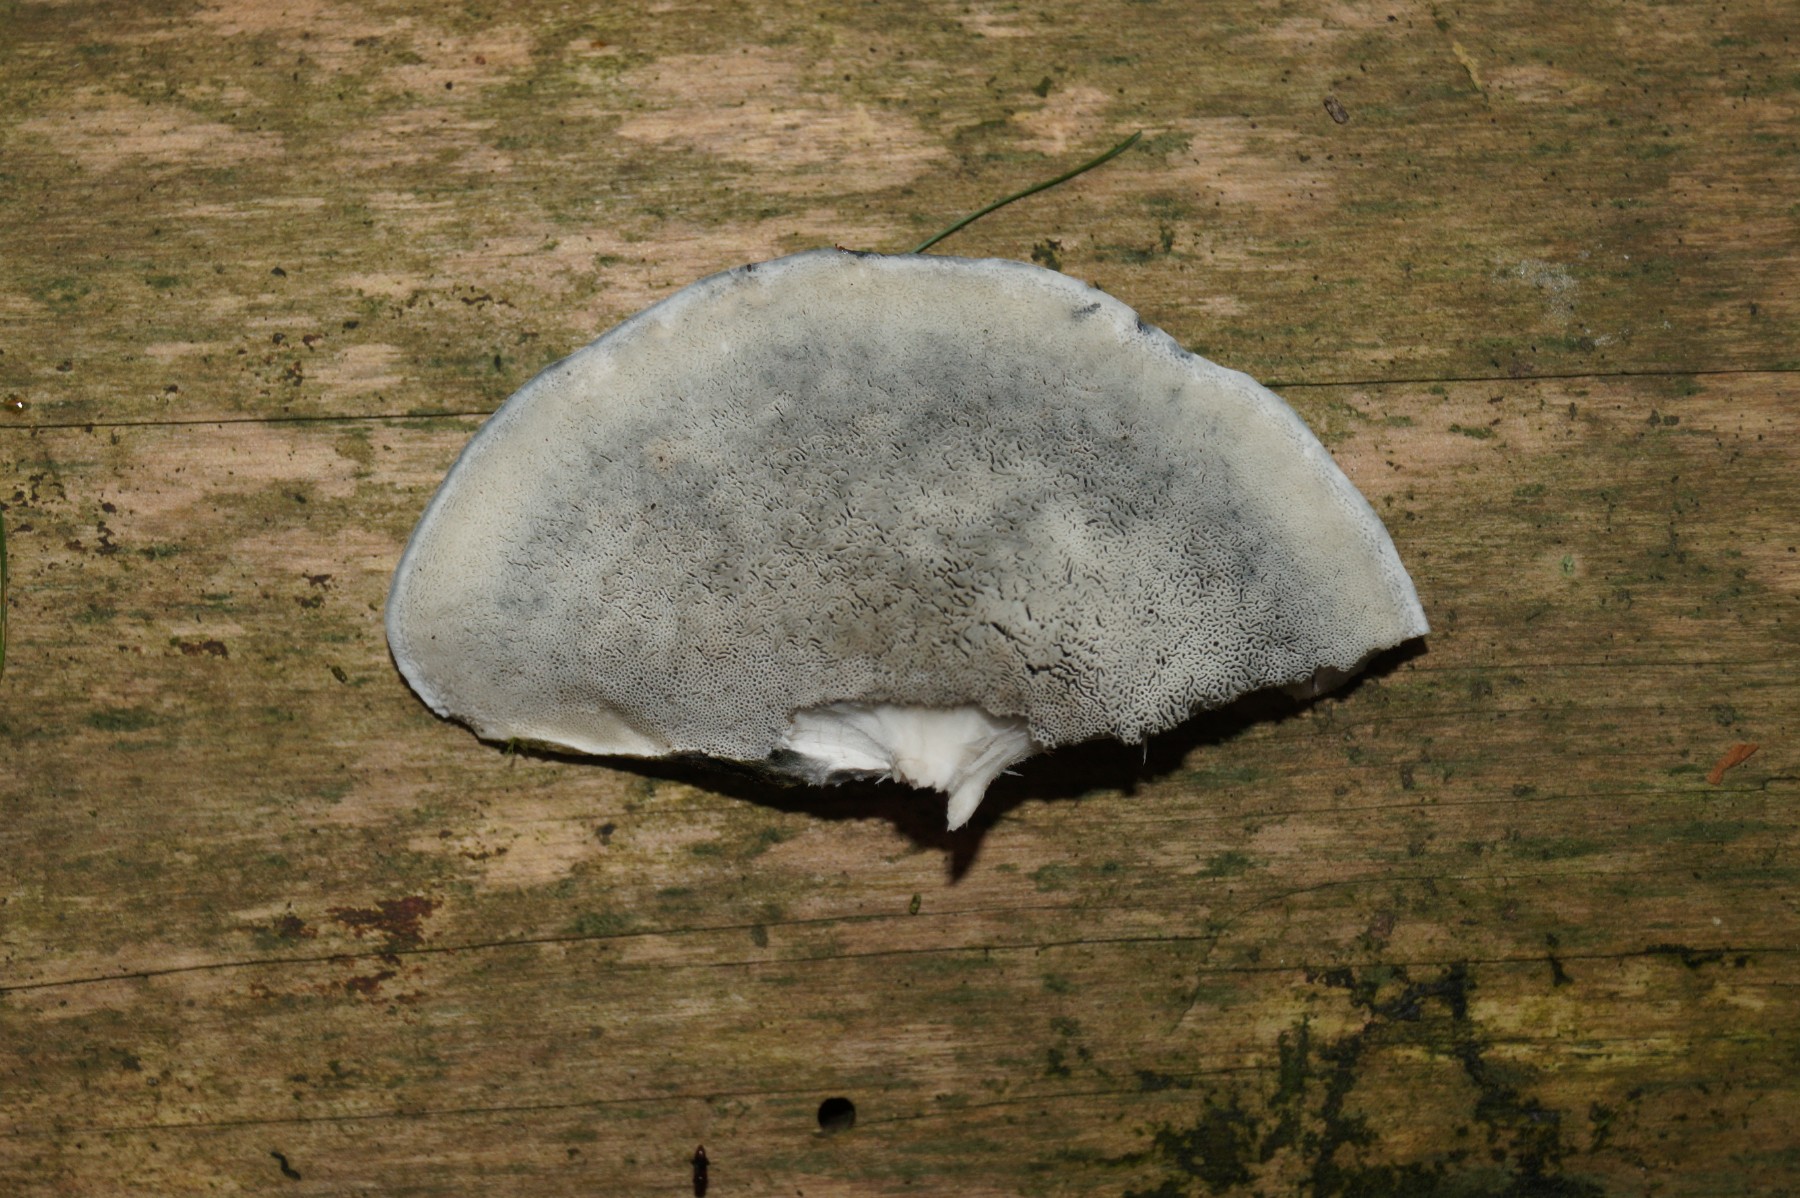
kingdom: Fungi
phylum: Basidiomycota
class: Agaricomycetes
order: Polyporales
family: Polyporaceae
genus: Cyanosporus
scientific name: Cyanosporus caesius
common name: blålig kødporesvamp
